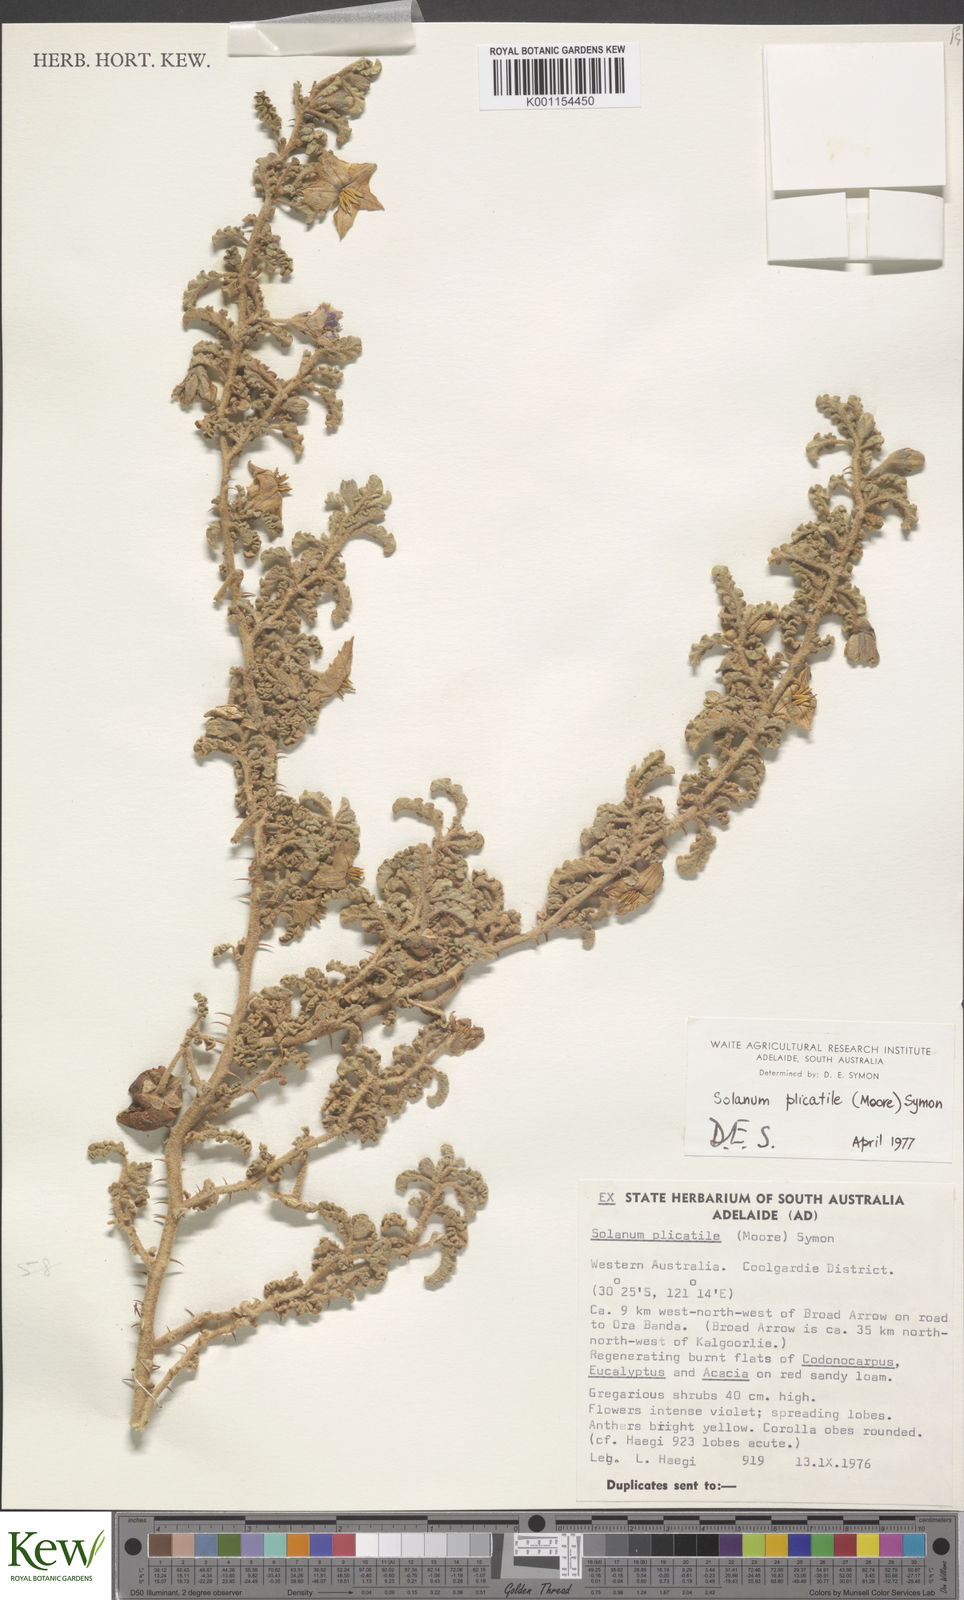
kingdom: Plantae
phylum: Tracheophyta
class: Magnoliopsida
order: Solanales
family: Solanaceae
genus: Solanum
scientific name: Solanum plicatile
